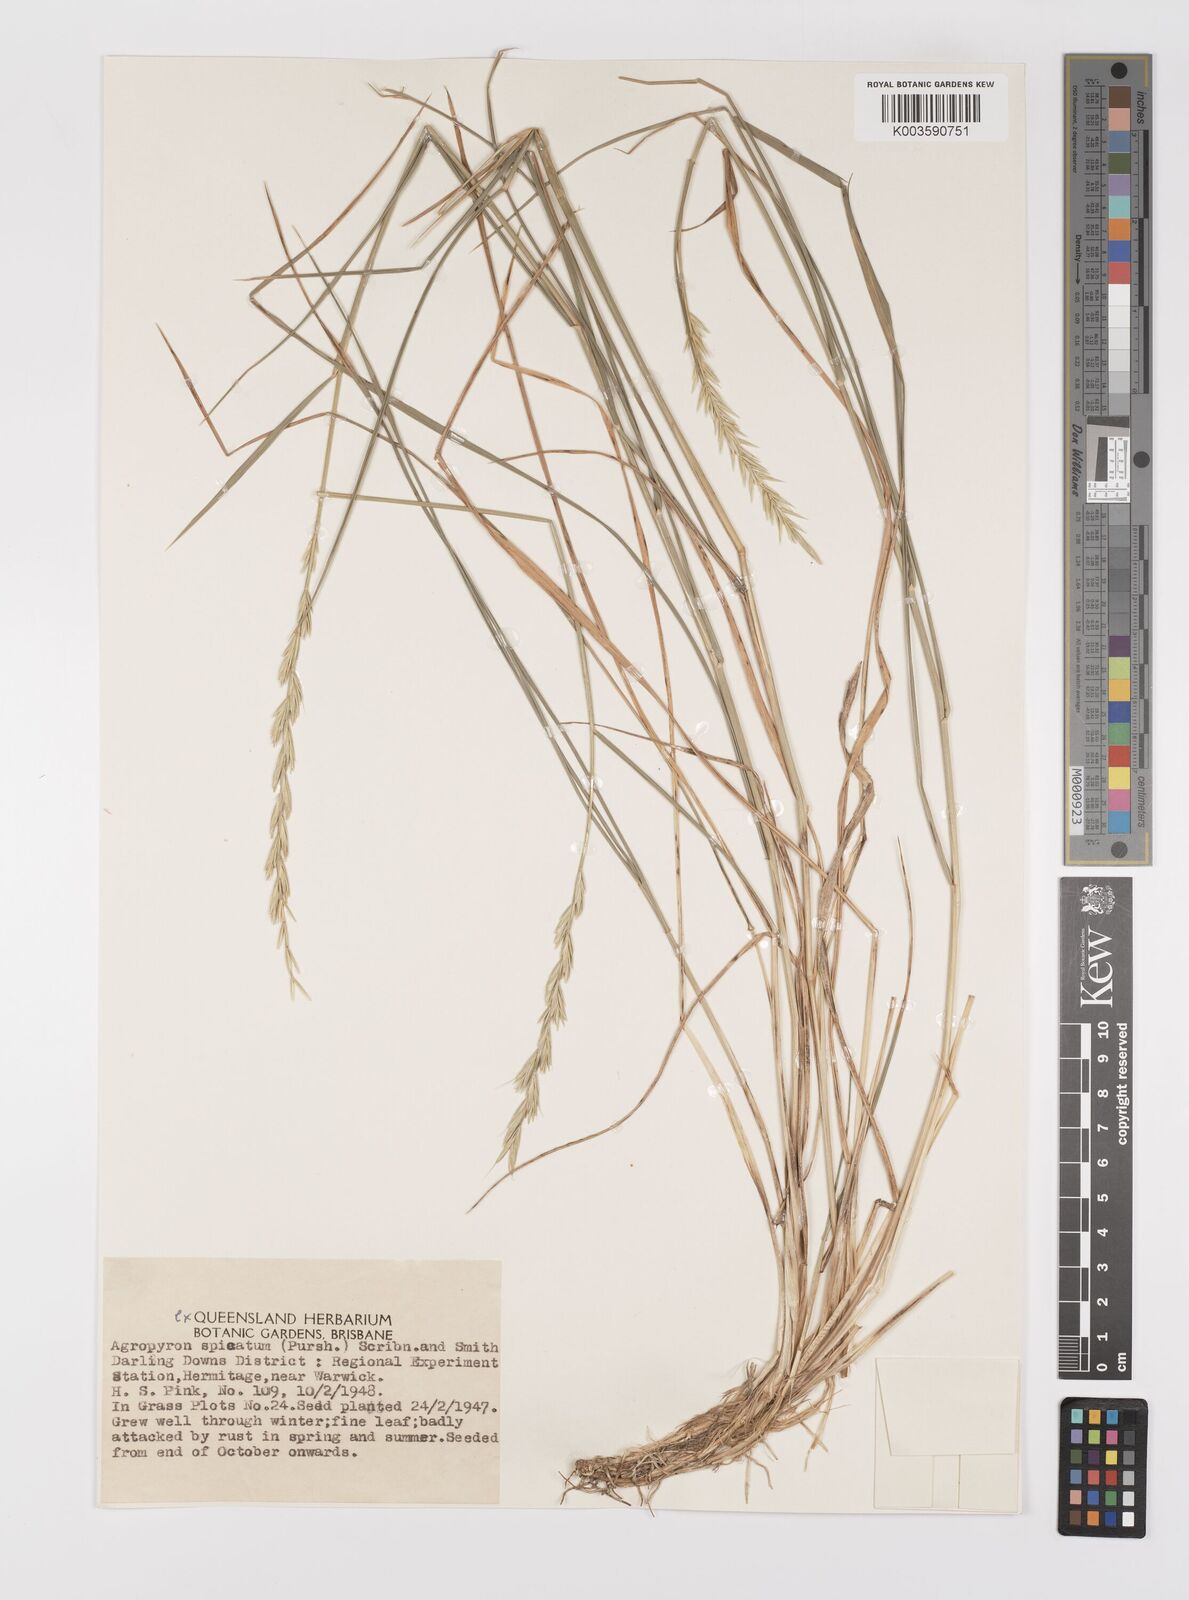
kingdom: Plantae
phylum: Tracheophyta
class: Liliopsida
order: Poales
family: Poaceae
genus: Pseudoroegneria
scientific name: Pseudoroegneria spicata
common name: Bluebunch wheatgrass
